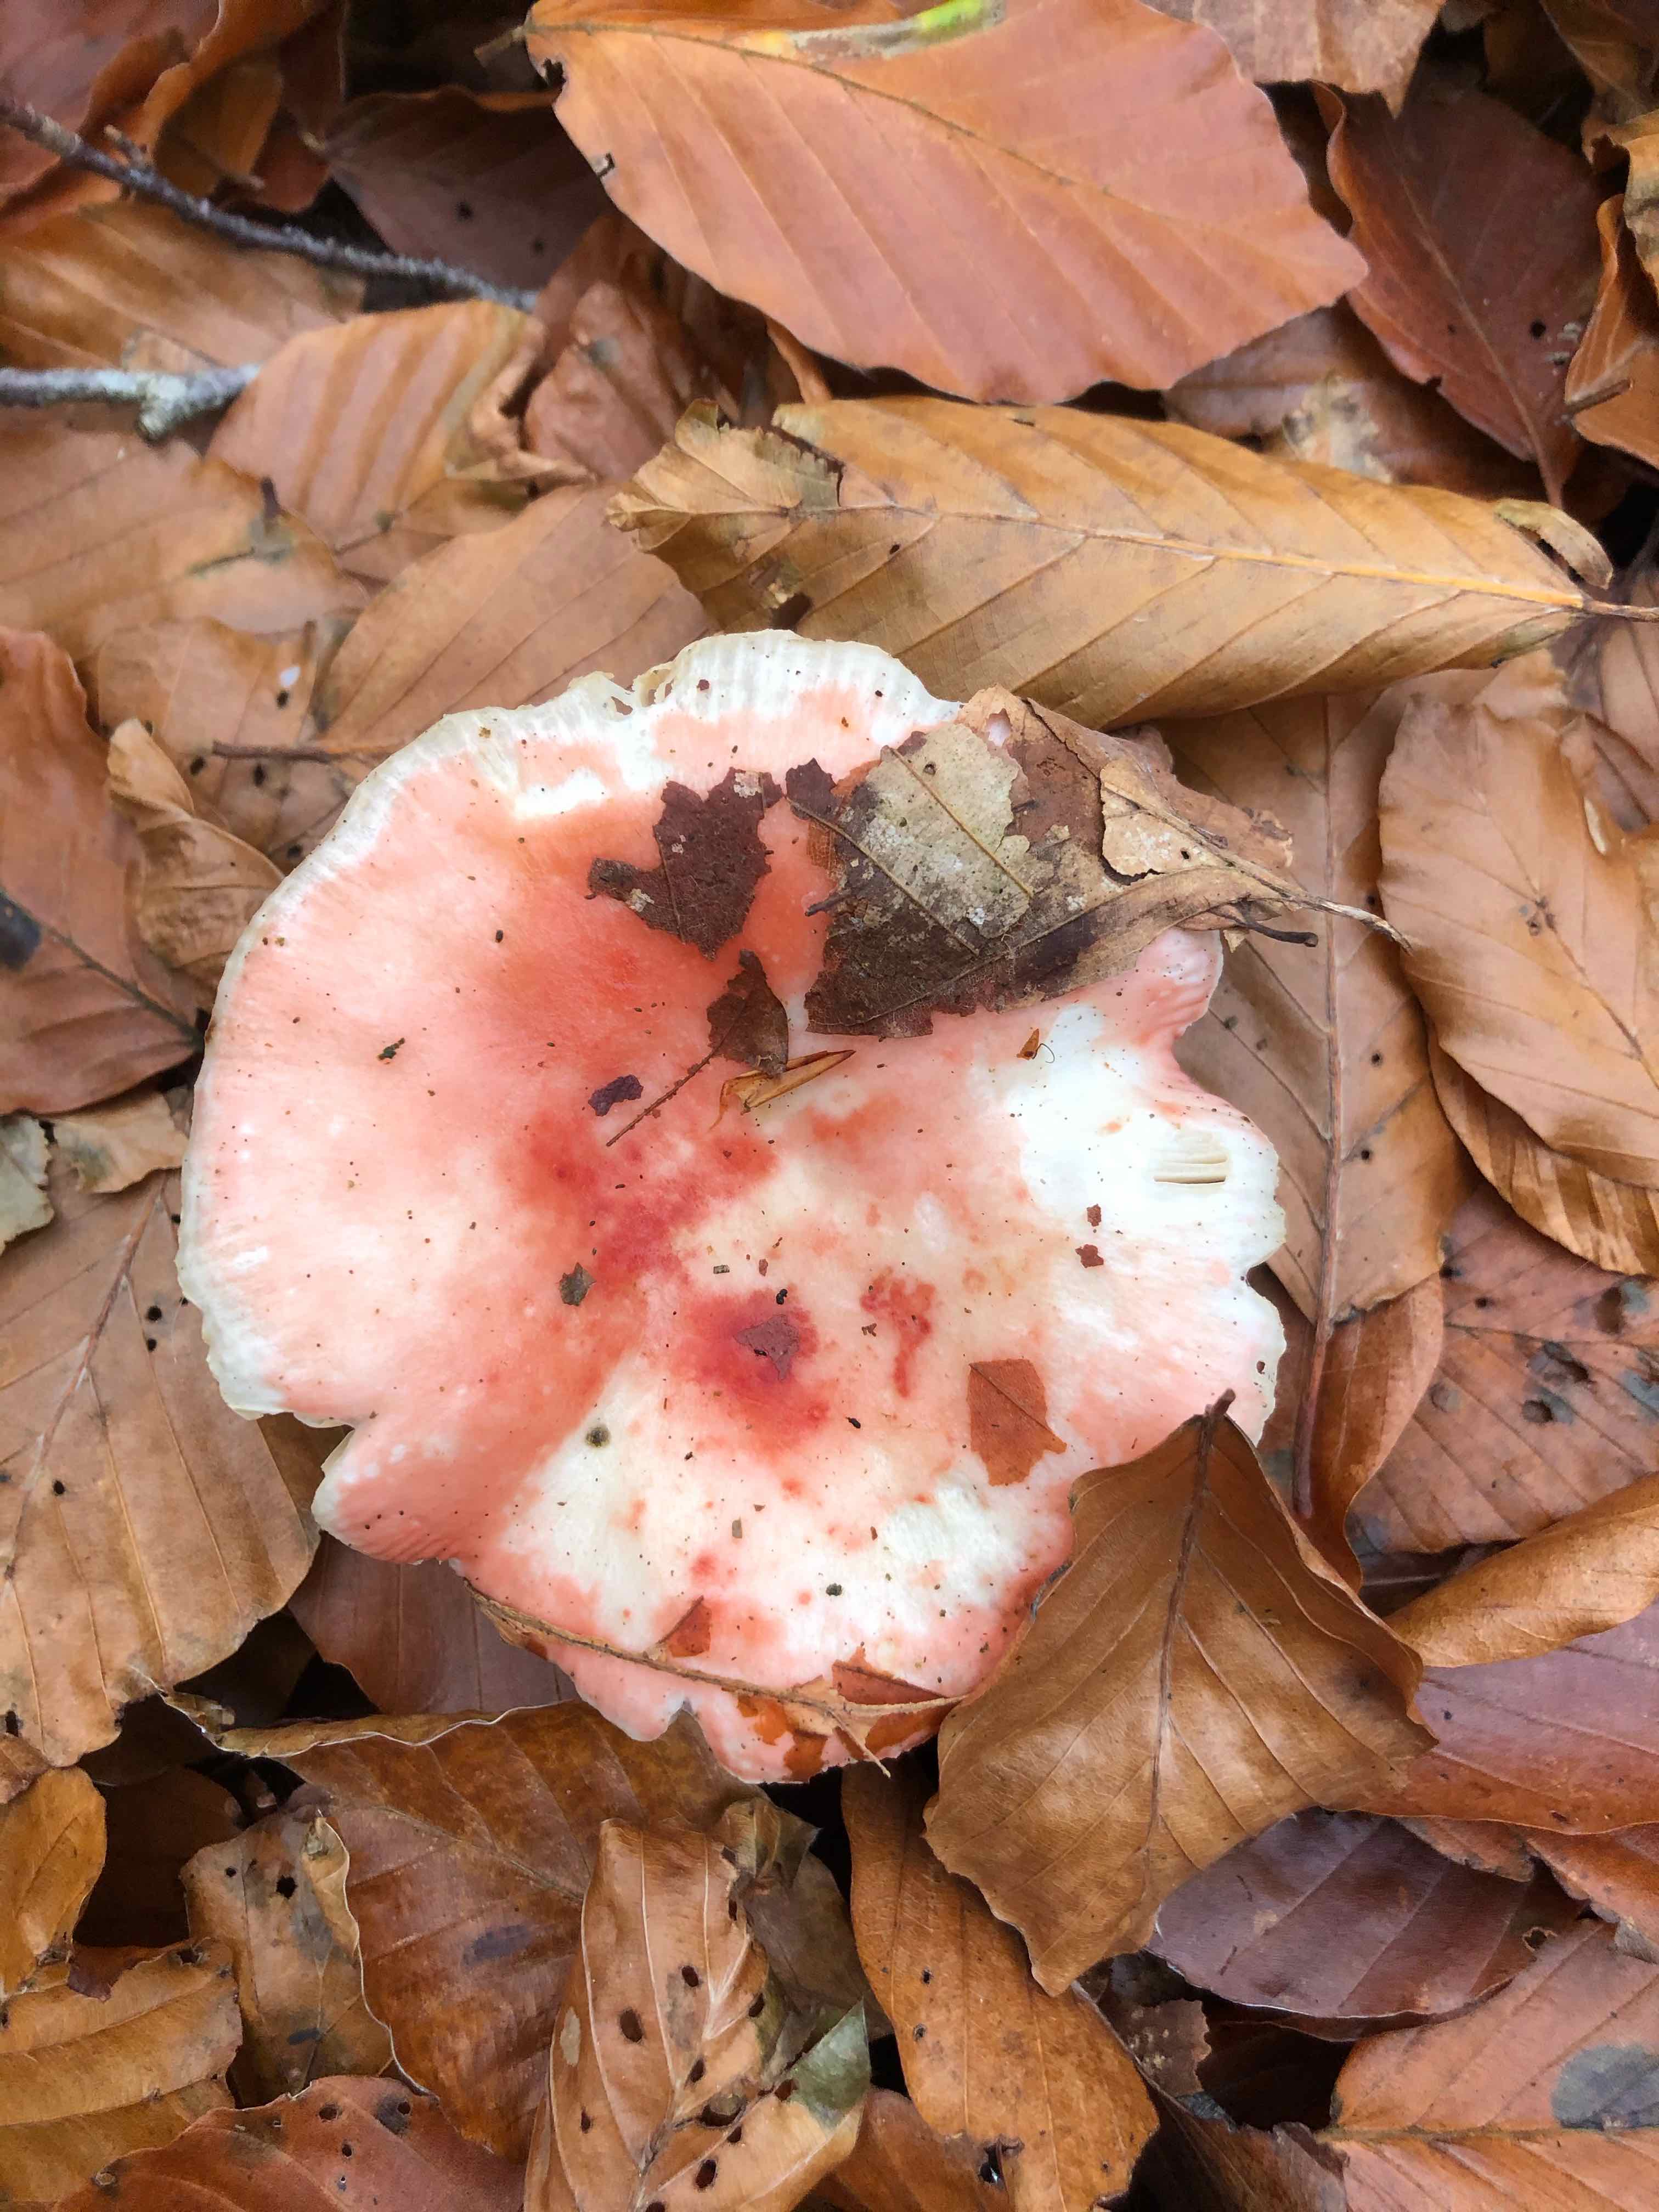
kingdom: Fungi
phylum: Basidiomycota
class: Agaricomycetes
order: Russulales
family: Russulaceae
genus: Russula
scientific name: Russula
